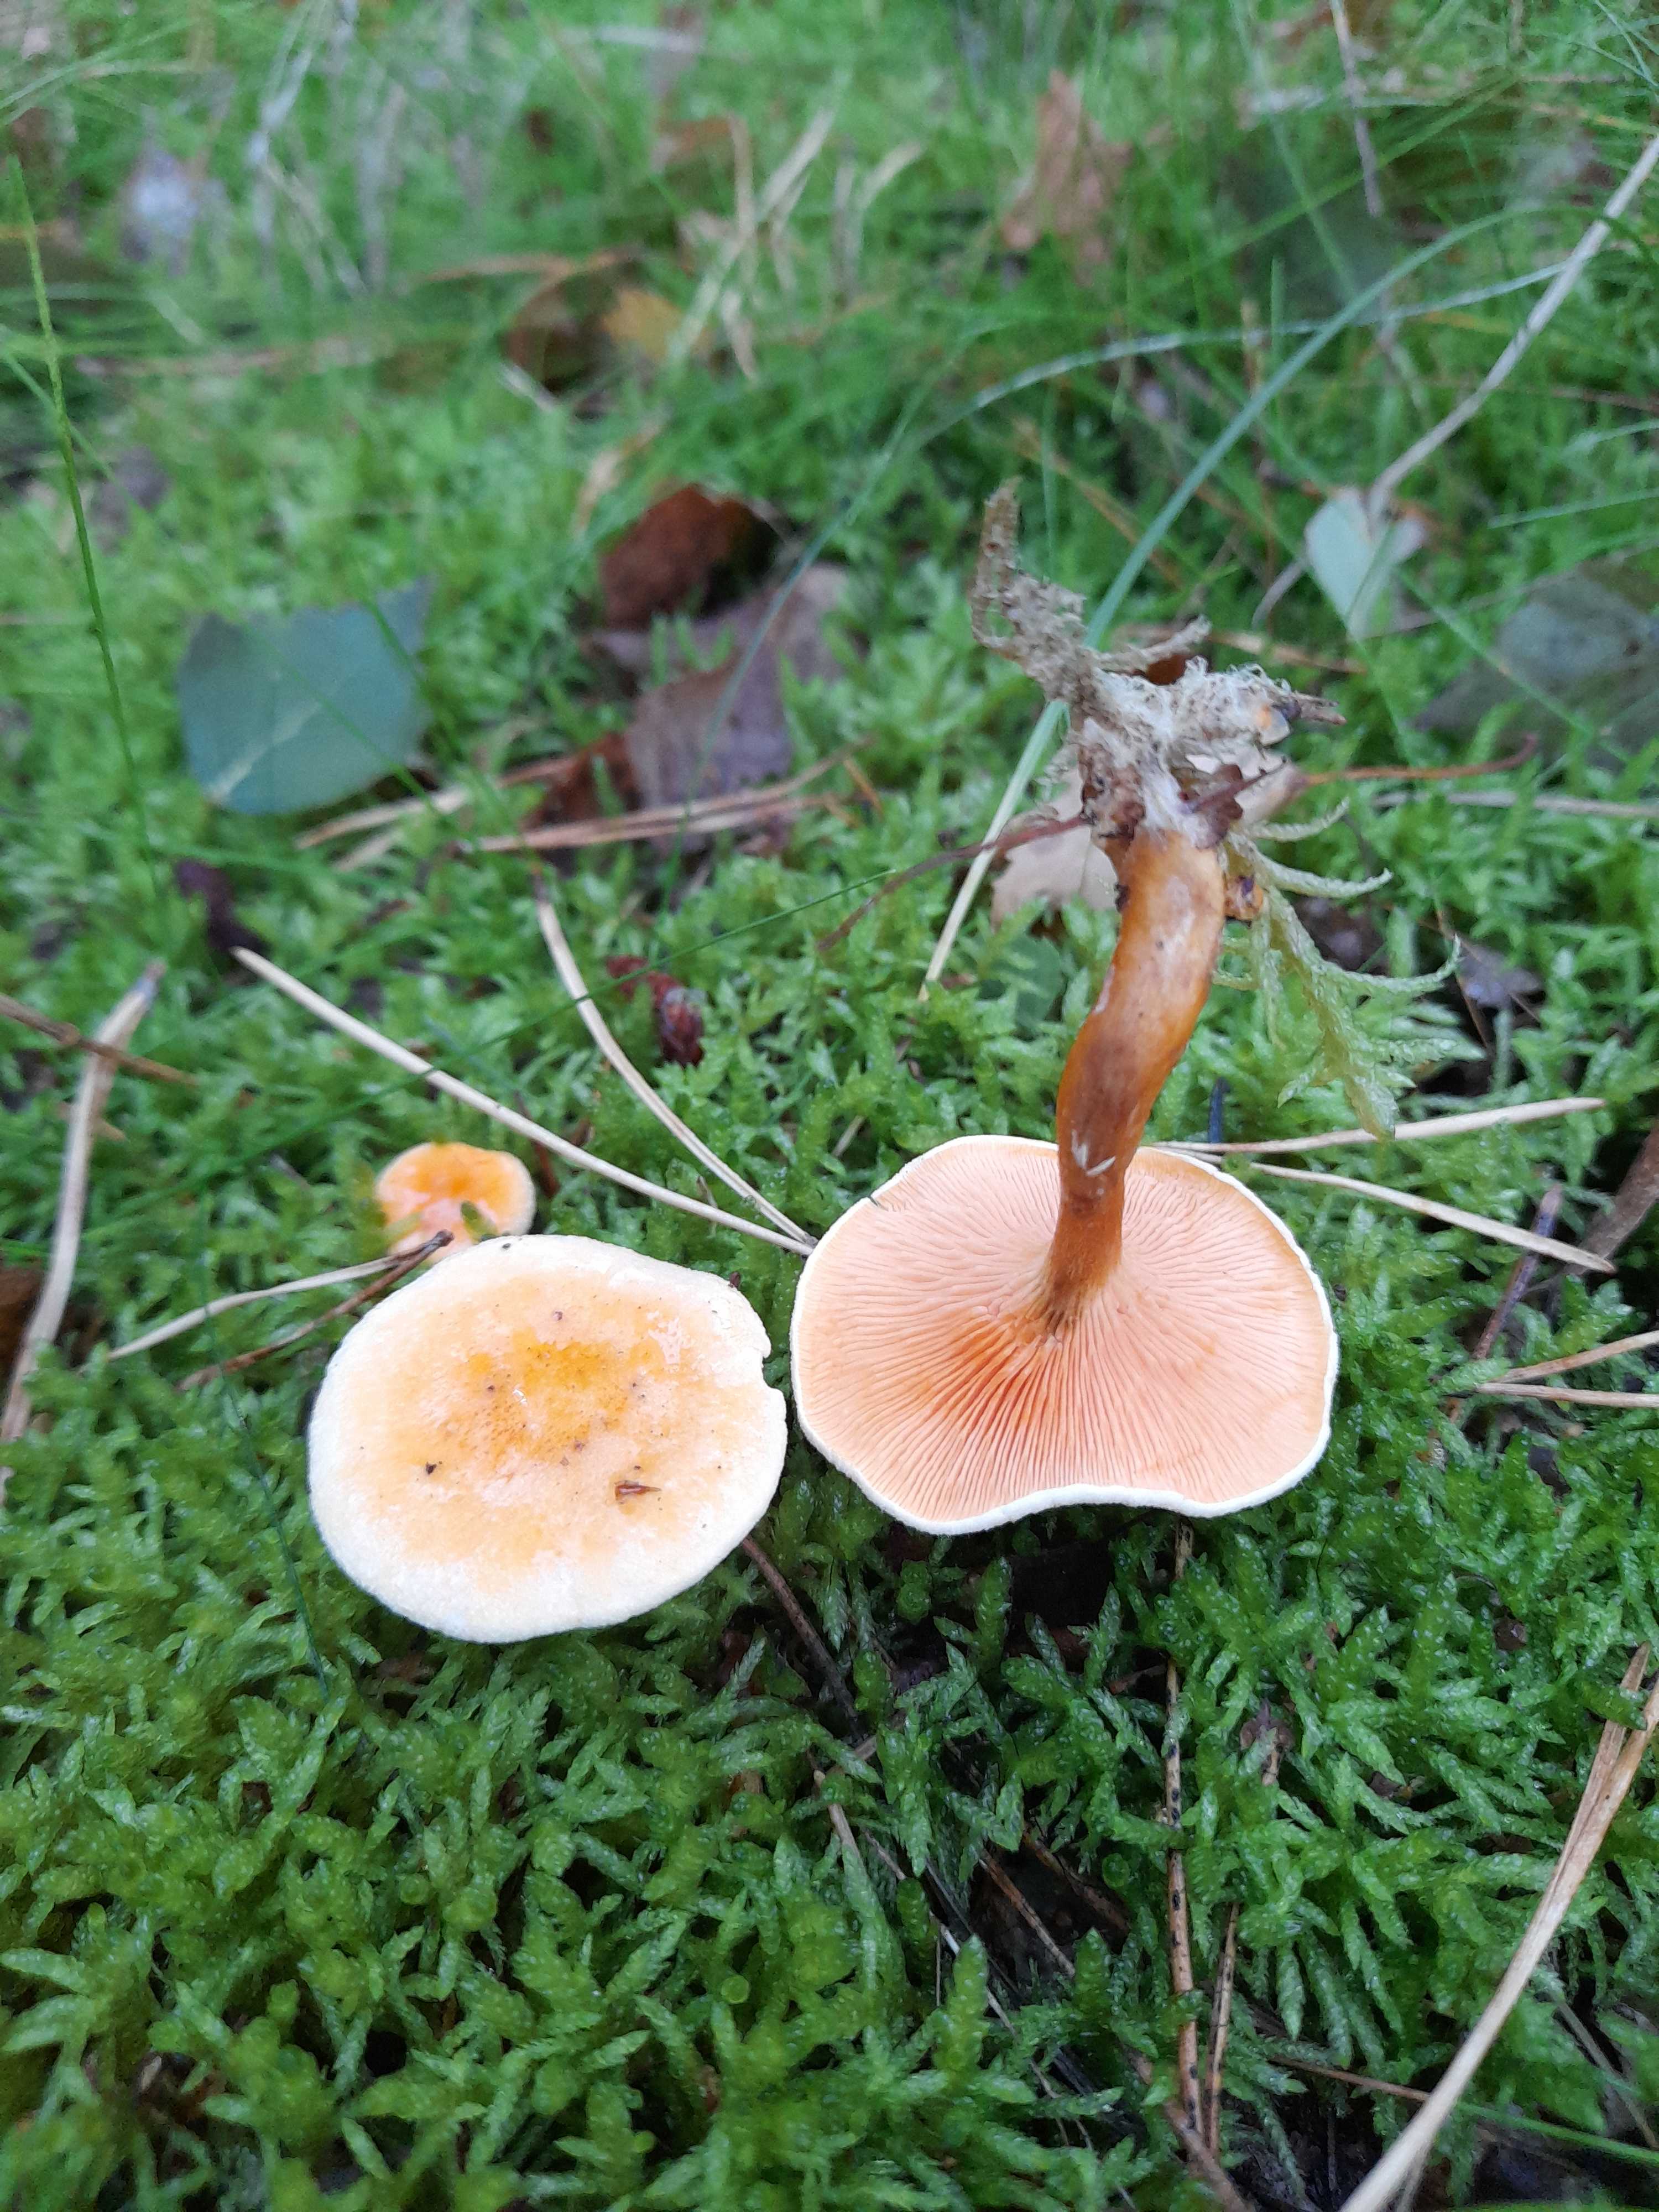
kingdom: Fungi
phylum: Basidiomycota
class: Agaricomycetes
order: Boletales
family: Hygrophoropsidaceae
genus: Hygrophoropsis
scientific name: Hygrophoropsis aurantiaca
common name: almindelig orangekantarel
